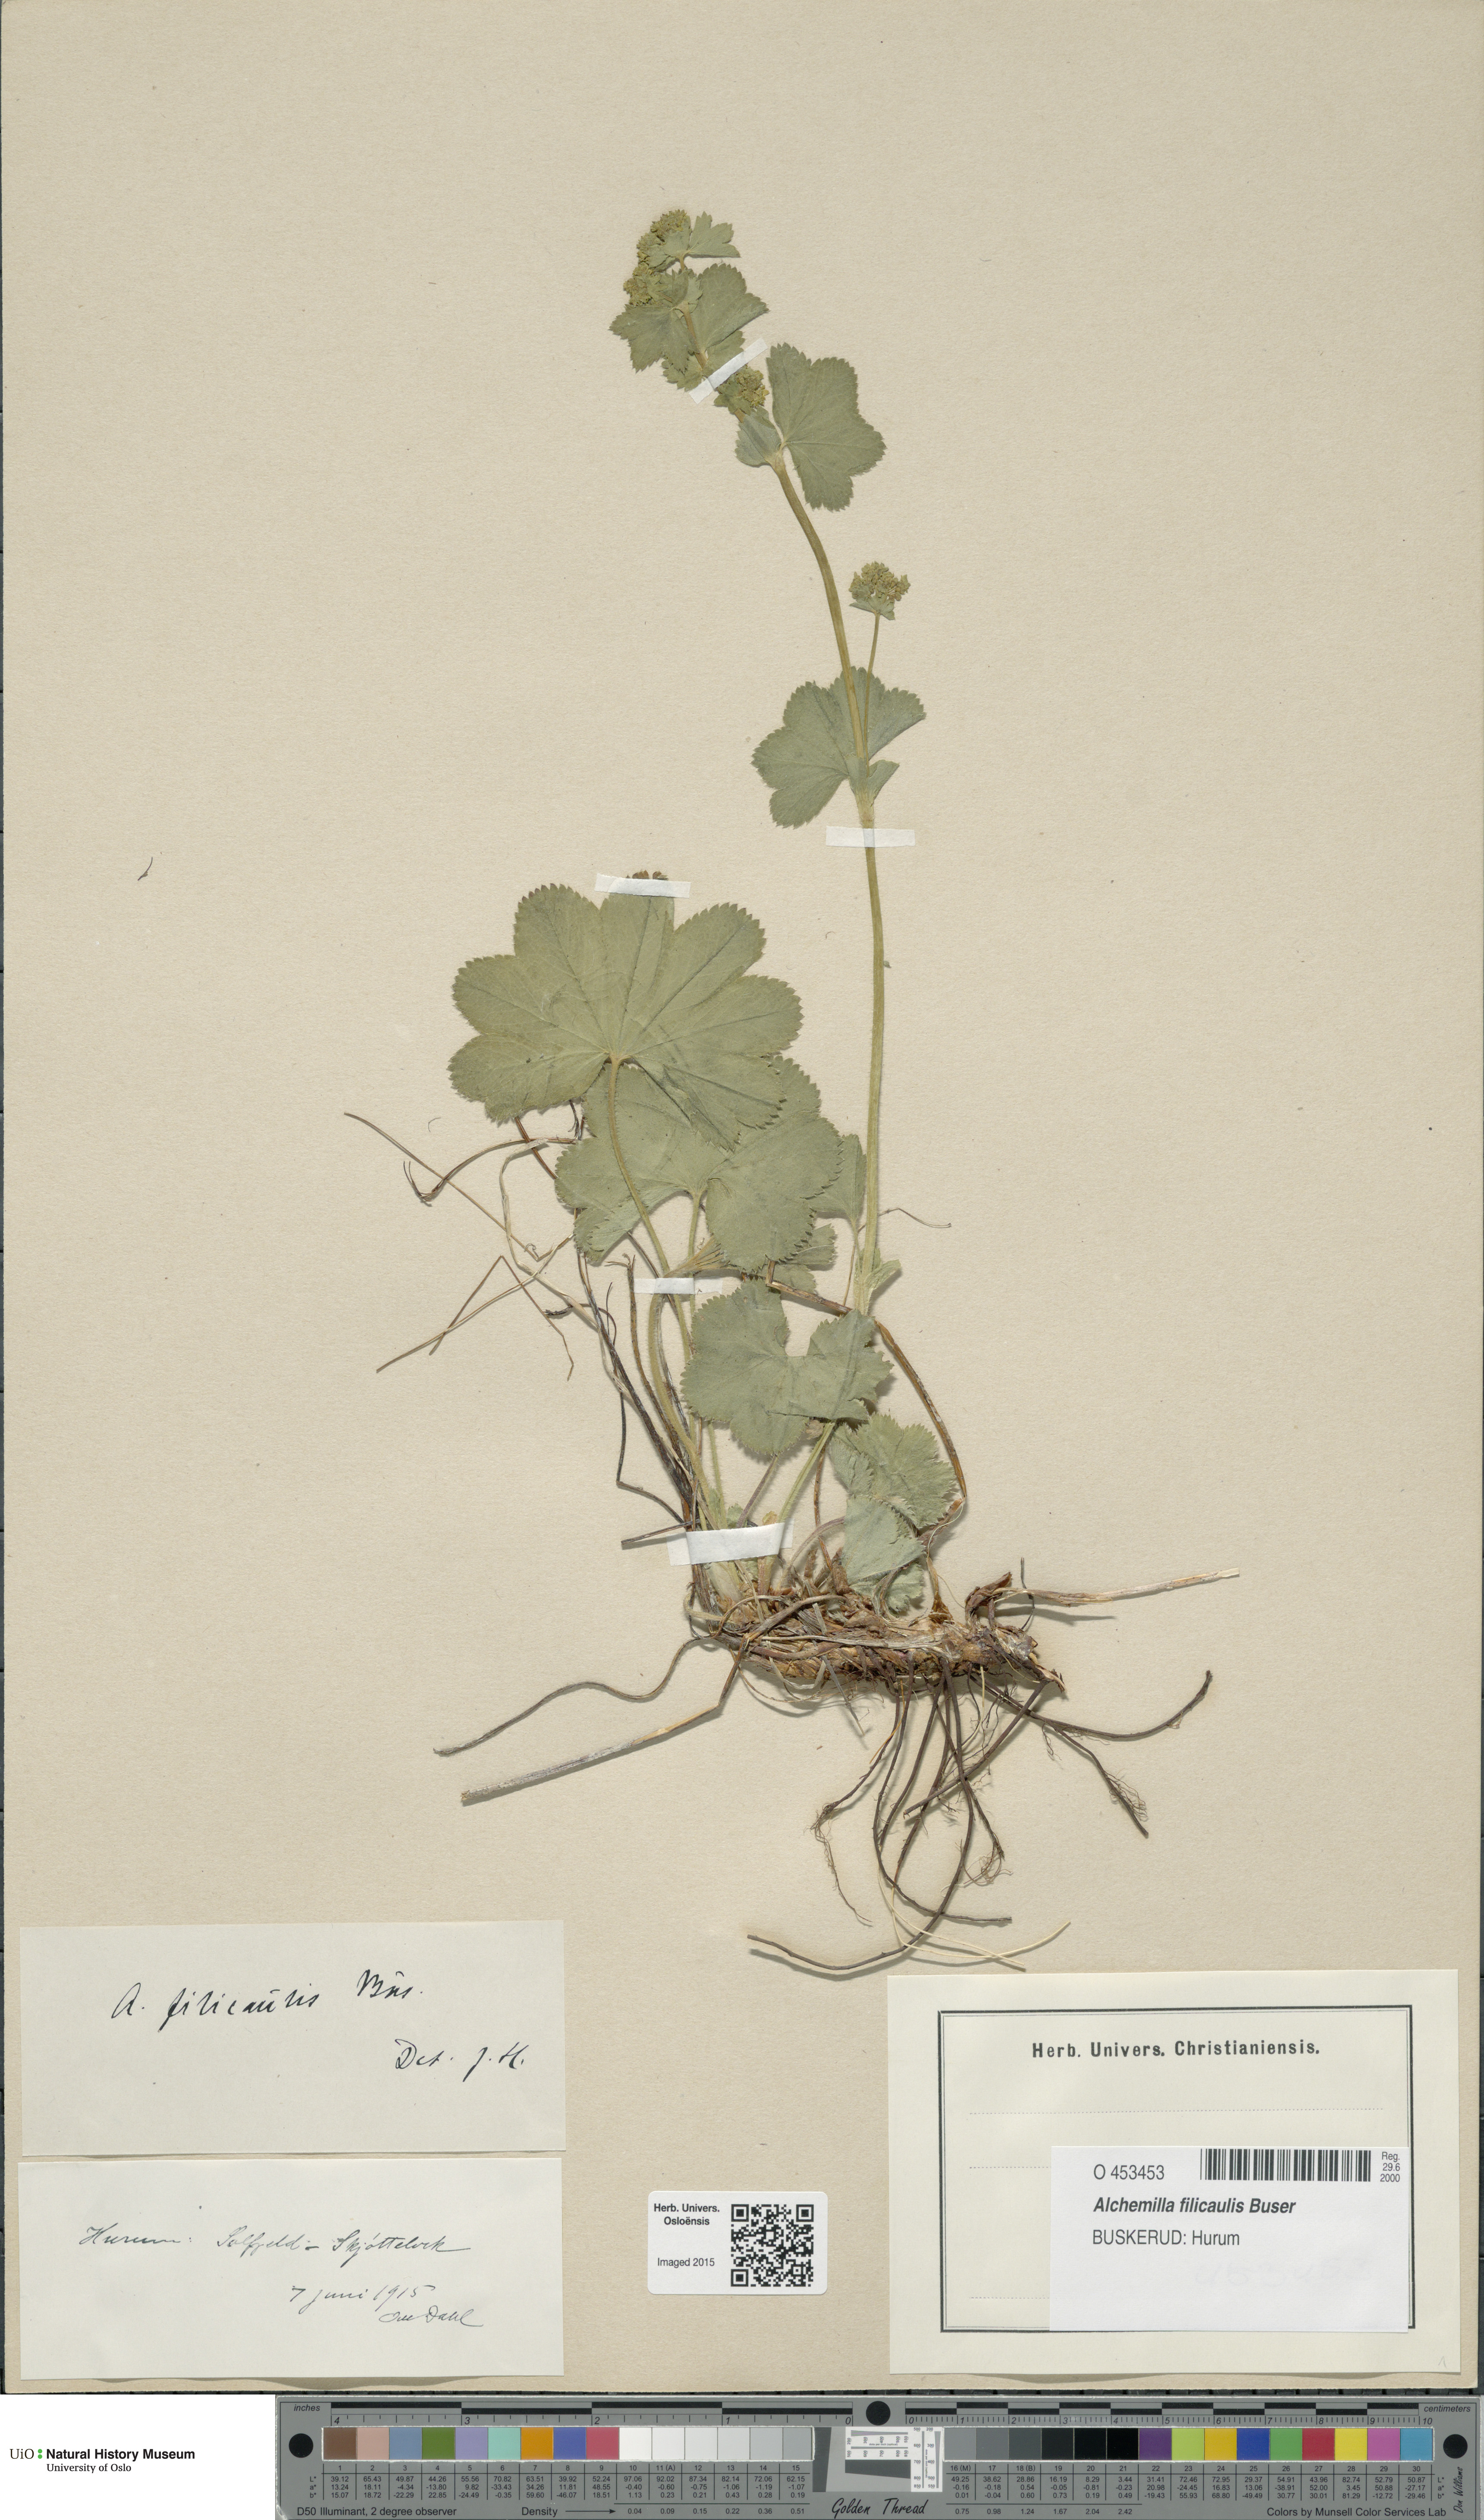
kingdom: Plantae
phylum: Tracheophyta
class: Magnoliopsida
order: Rosales
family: Rosaceae
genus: Alchemilla
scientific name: Alchemilla filicaulis
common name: Hairy lady's-mantle
